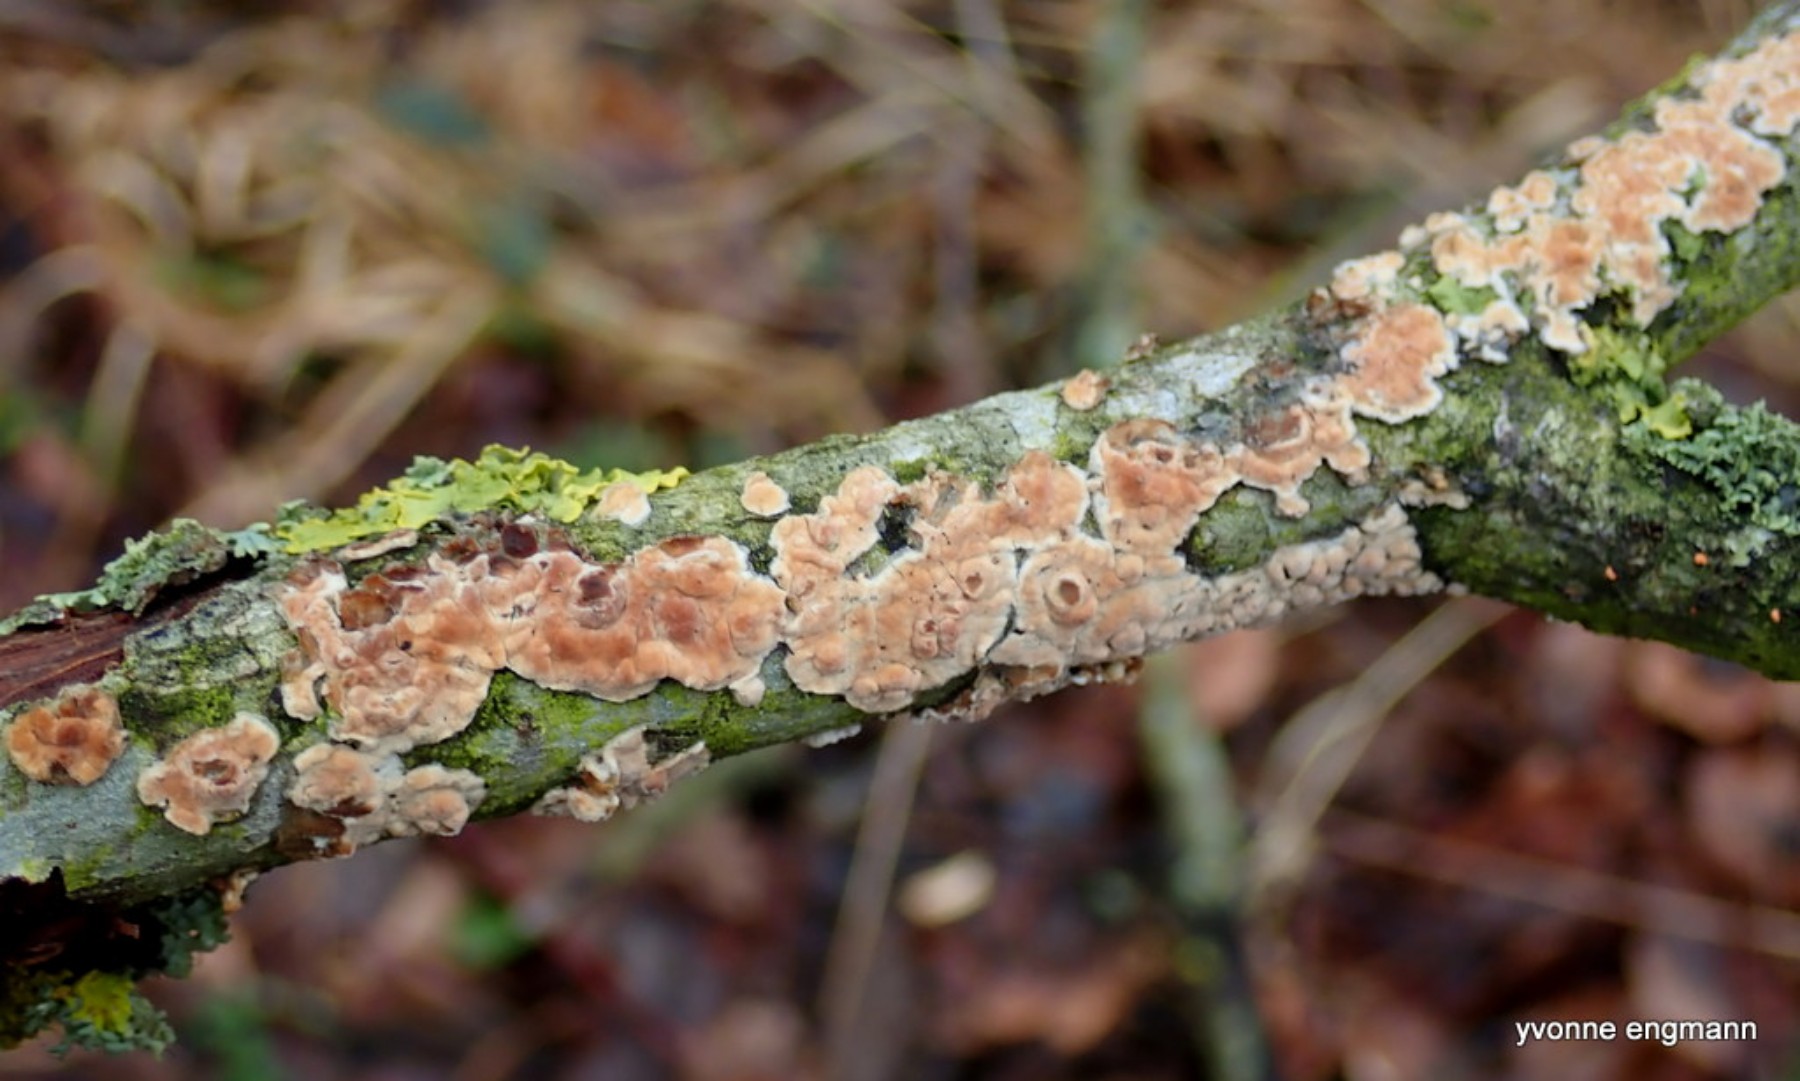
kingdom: Fungi
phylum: Basidiomycota
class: Agaricomycetes
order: Agaricales
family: Physalacriaceae
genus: Cylindrobasidium
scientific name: Cylindrobasidium evolvens
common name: sprækkehinde
